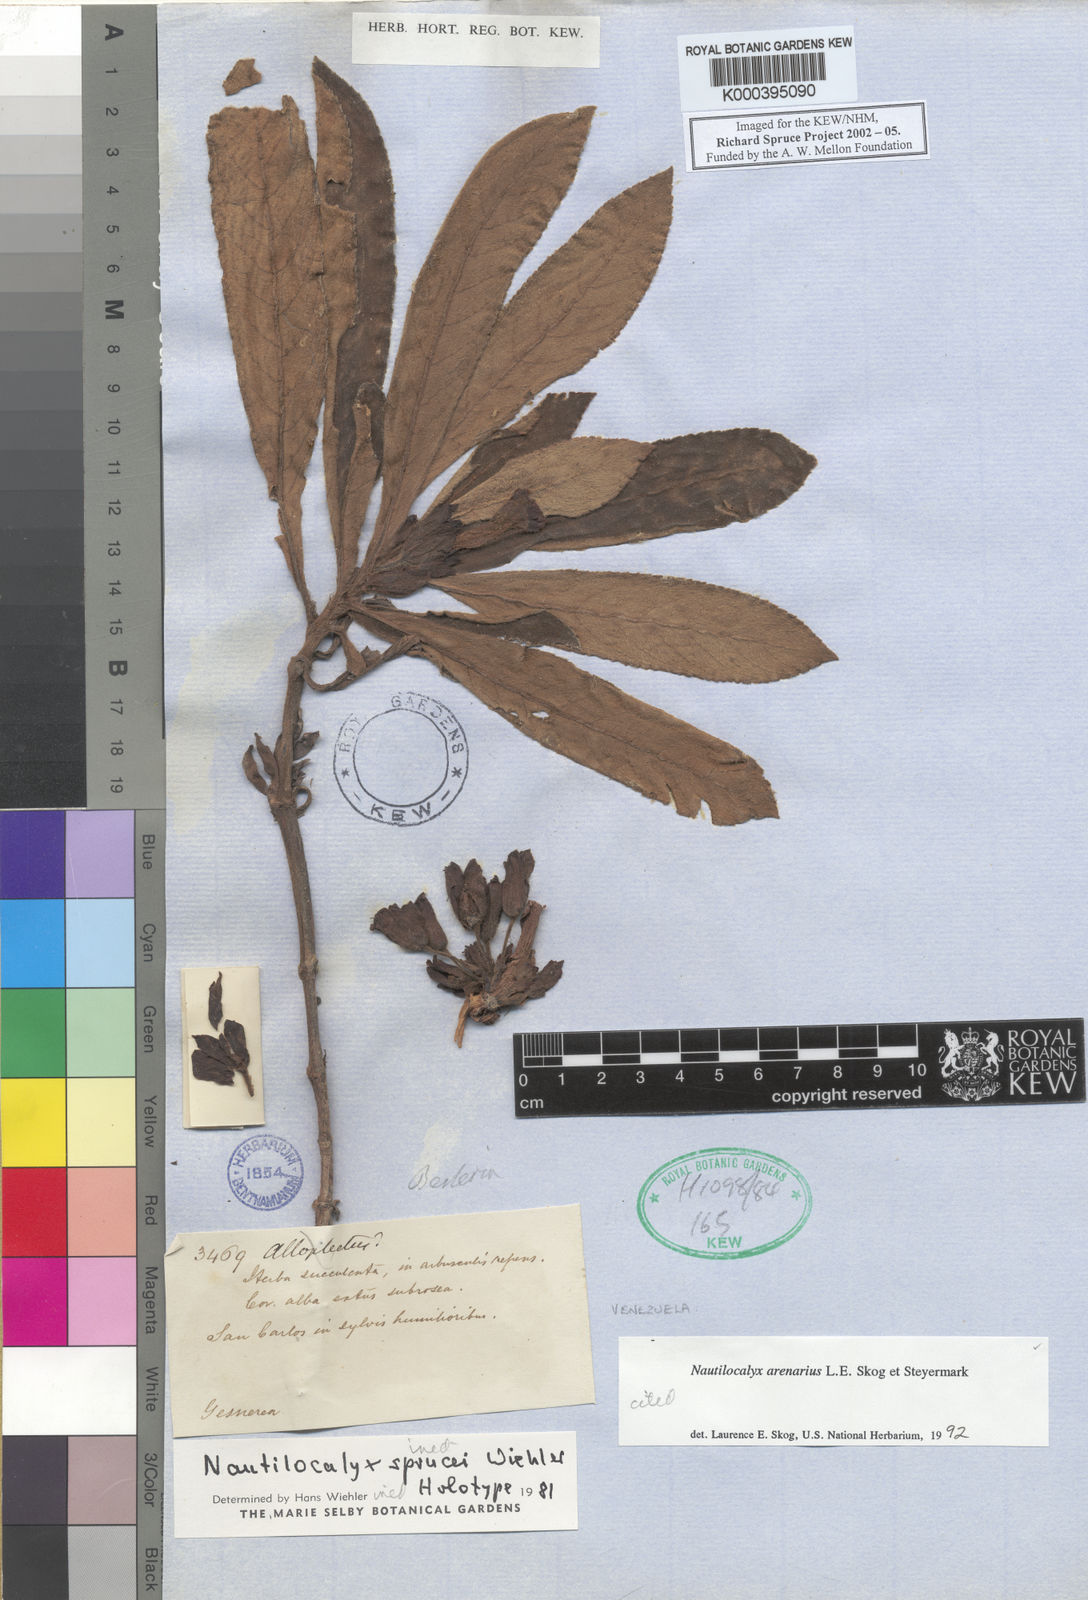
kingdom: Plantae
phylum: Tracheophyta
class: Magnoliopsida
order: Lamiales
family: Gesneriaceae
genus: Nautilocalyx
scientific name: Nautilocalyx arenarius
